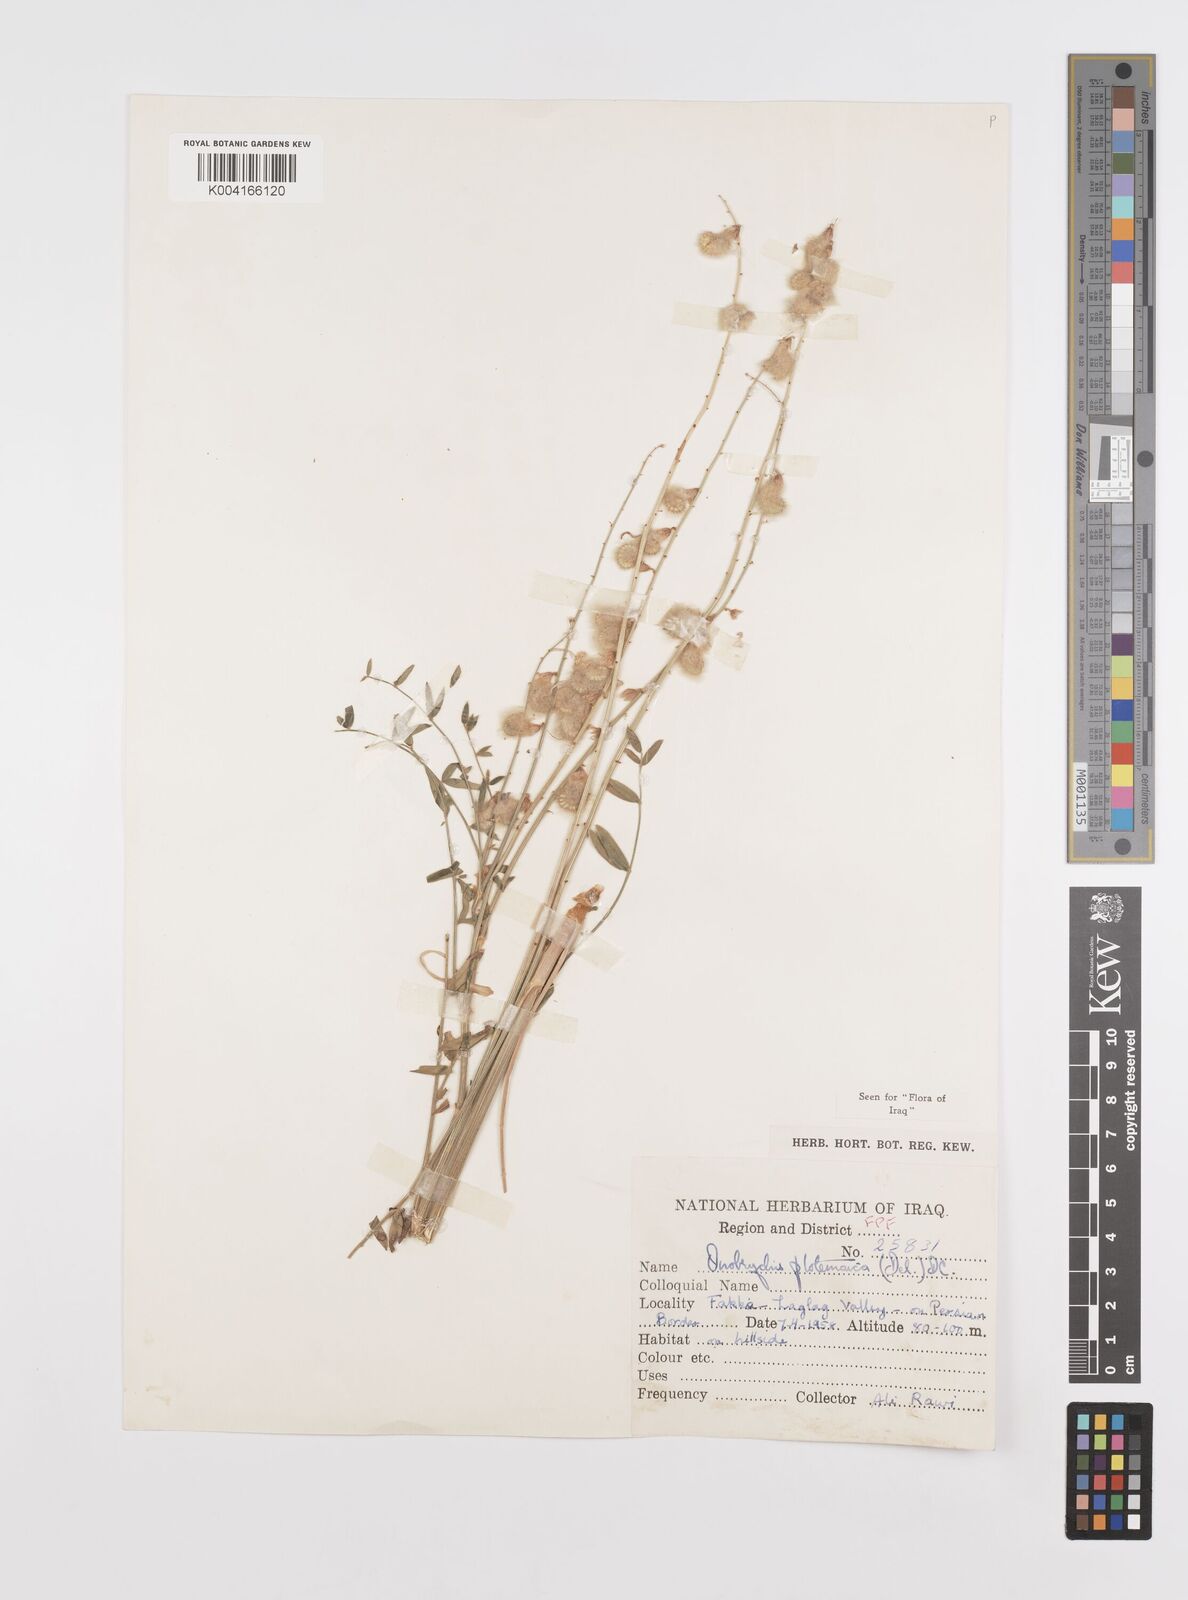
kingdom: Plantae
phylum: Tracheophyta
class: Magnoliopsida
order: Fabales
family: Fabaceae
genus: Onobrychis
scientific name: Onobrychis ptolemaica
